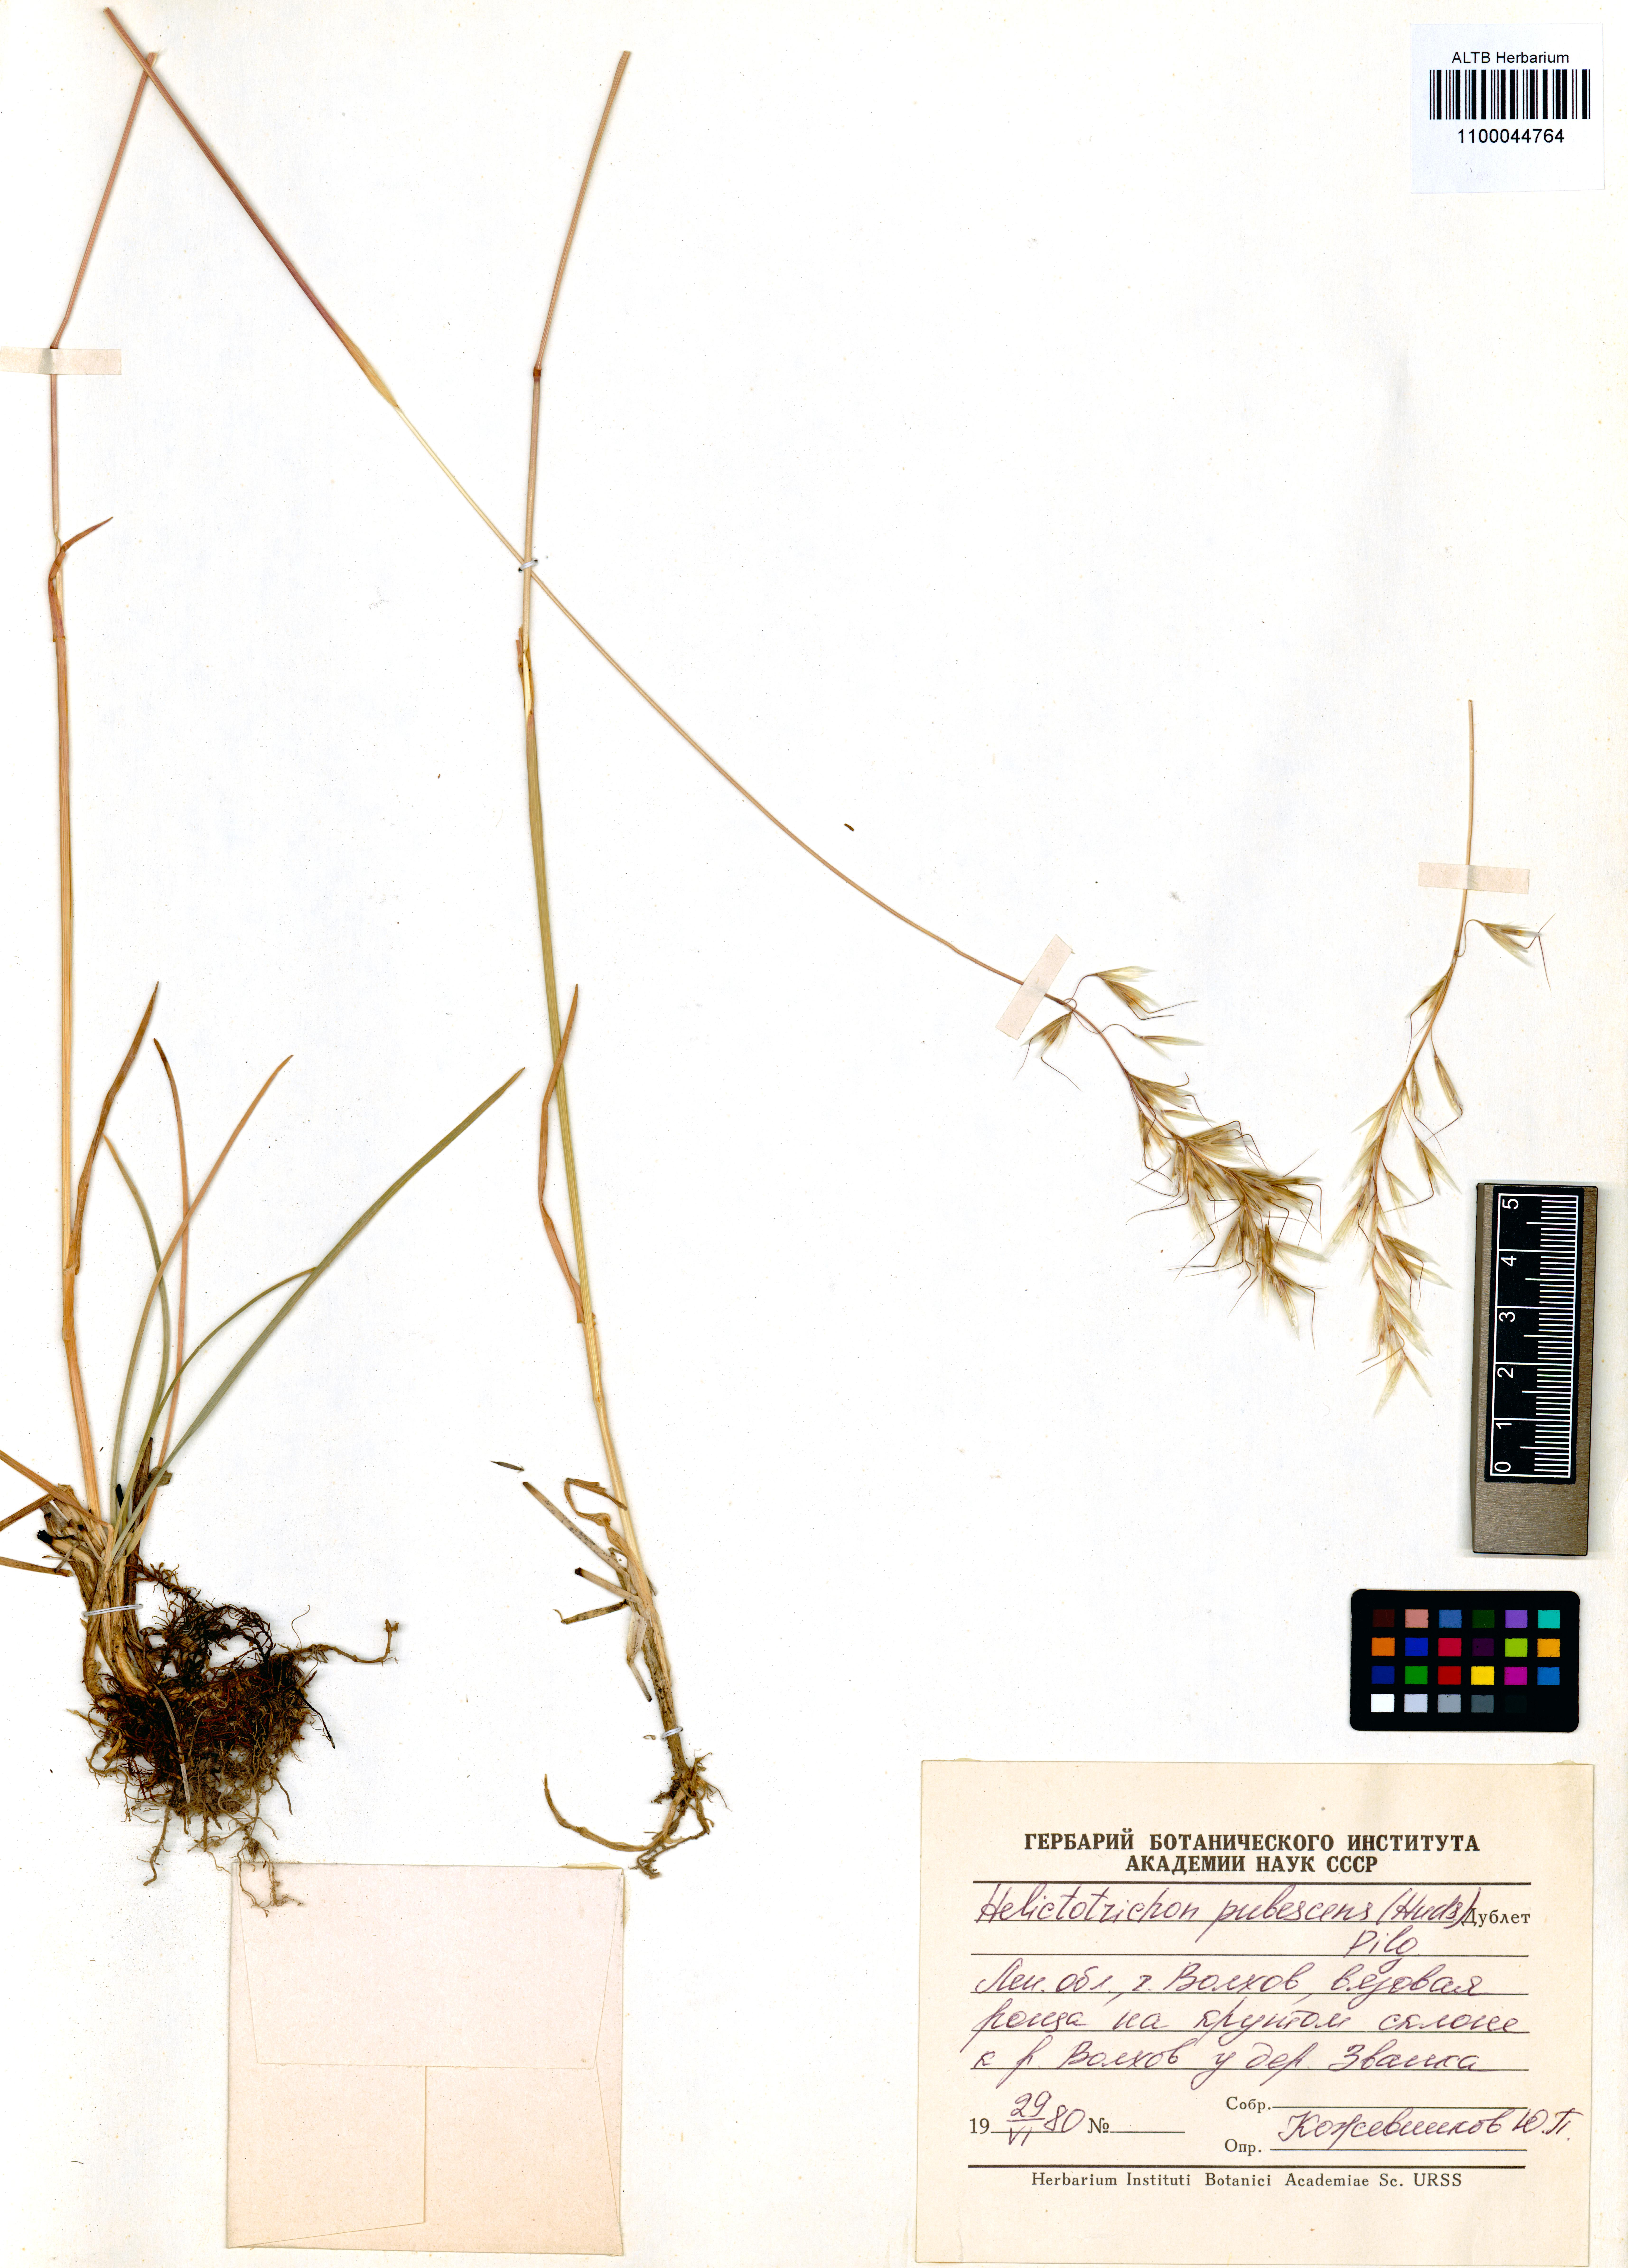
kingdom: Plantae
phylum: Tracheophyta
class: Liliopsida
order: Poales
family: Poaceae
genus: Avenula
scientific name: Avenula pubescens
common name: Downy alpine oatgrass
